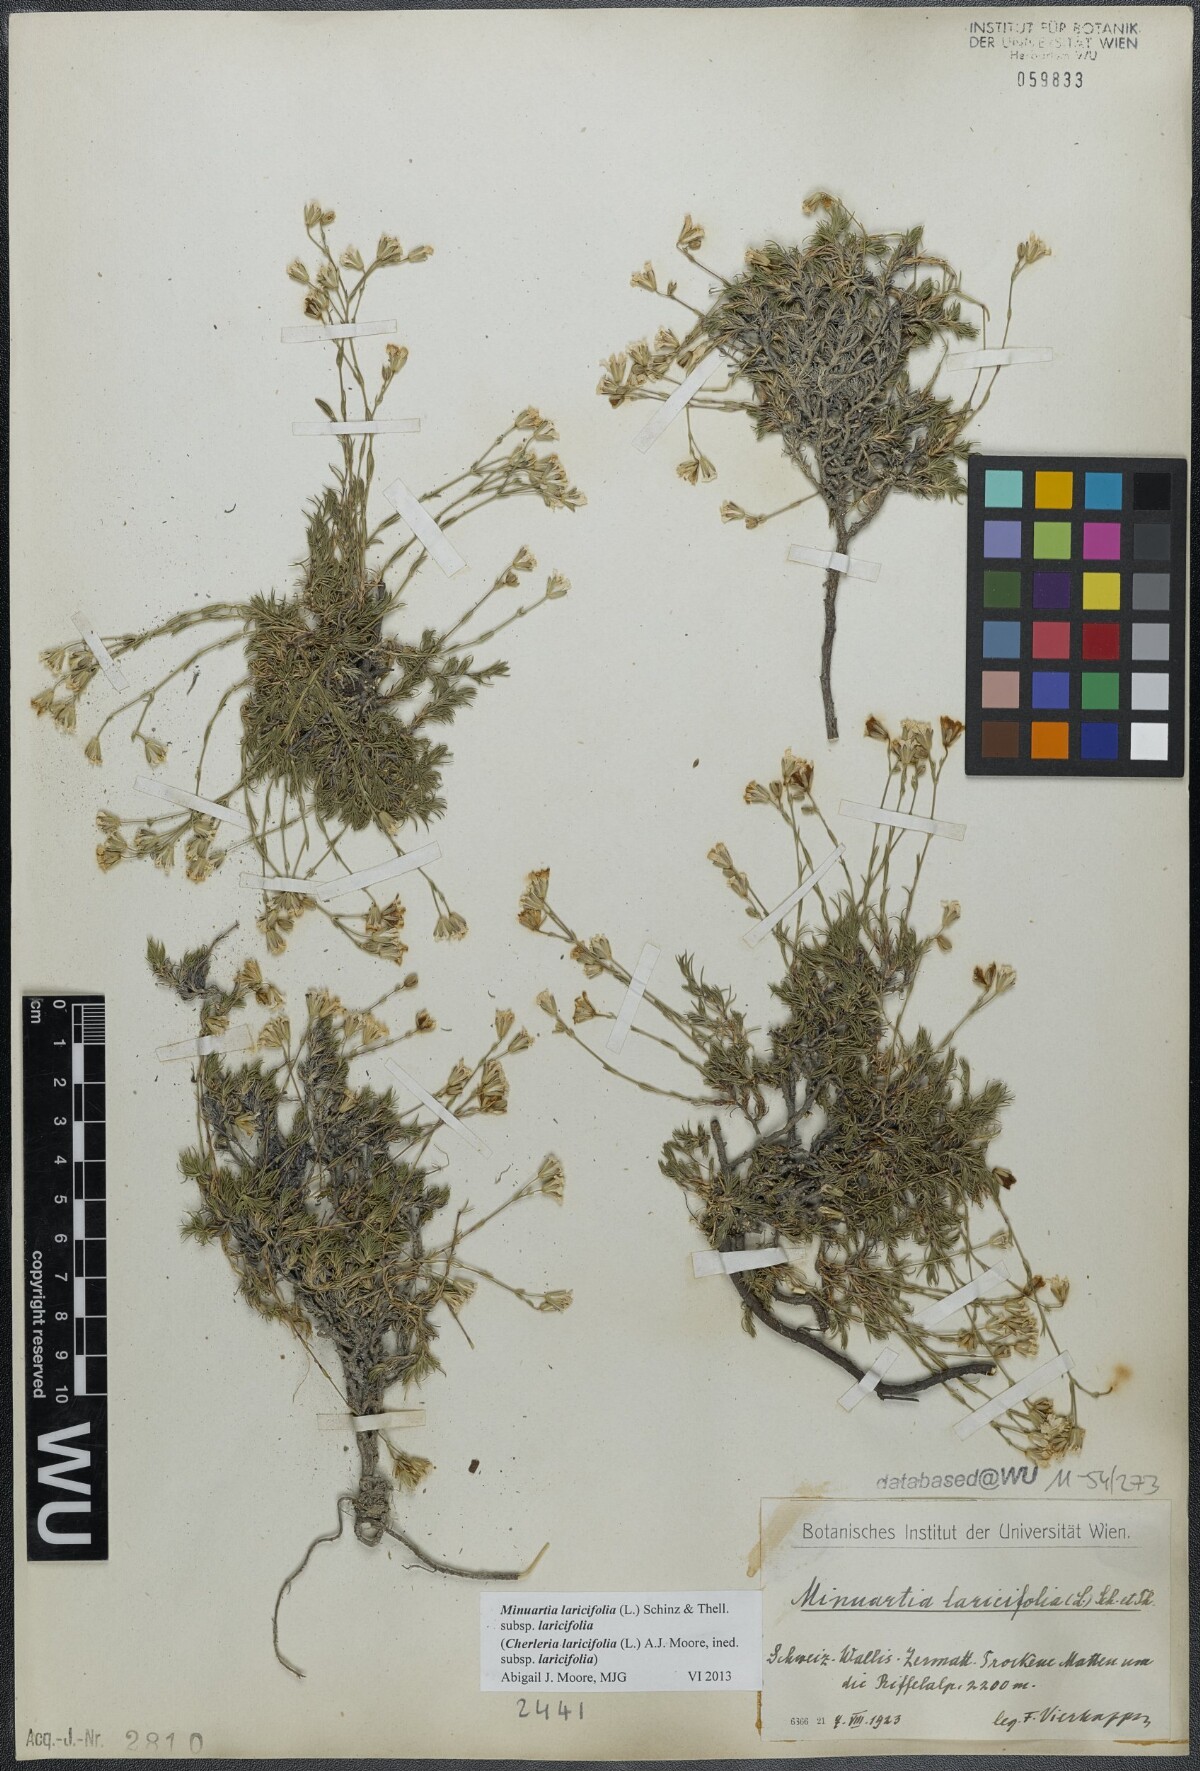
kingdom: Plantae
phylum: Tracheophyta
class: Magnoliopsida
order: Caryophyllales
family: Caryophyllaceae
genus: Cherleria
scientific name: Cherleria laricifolia
